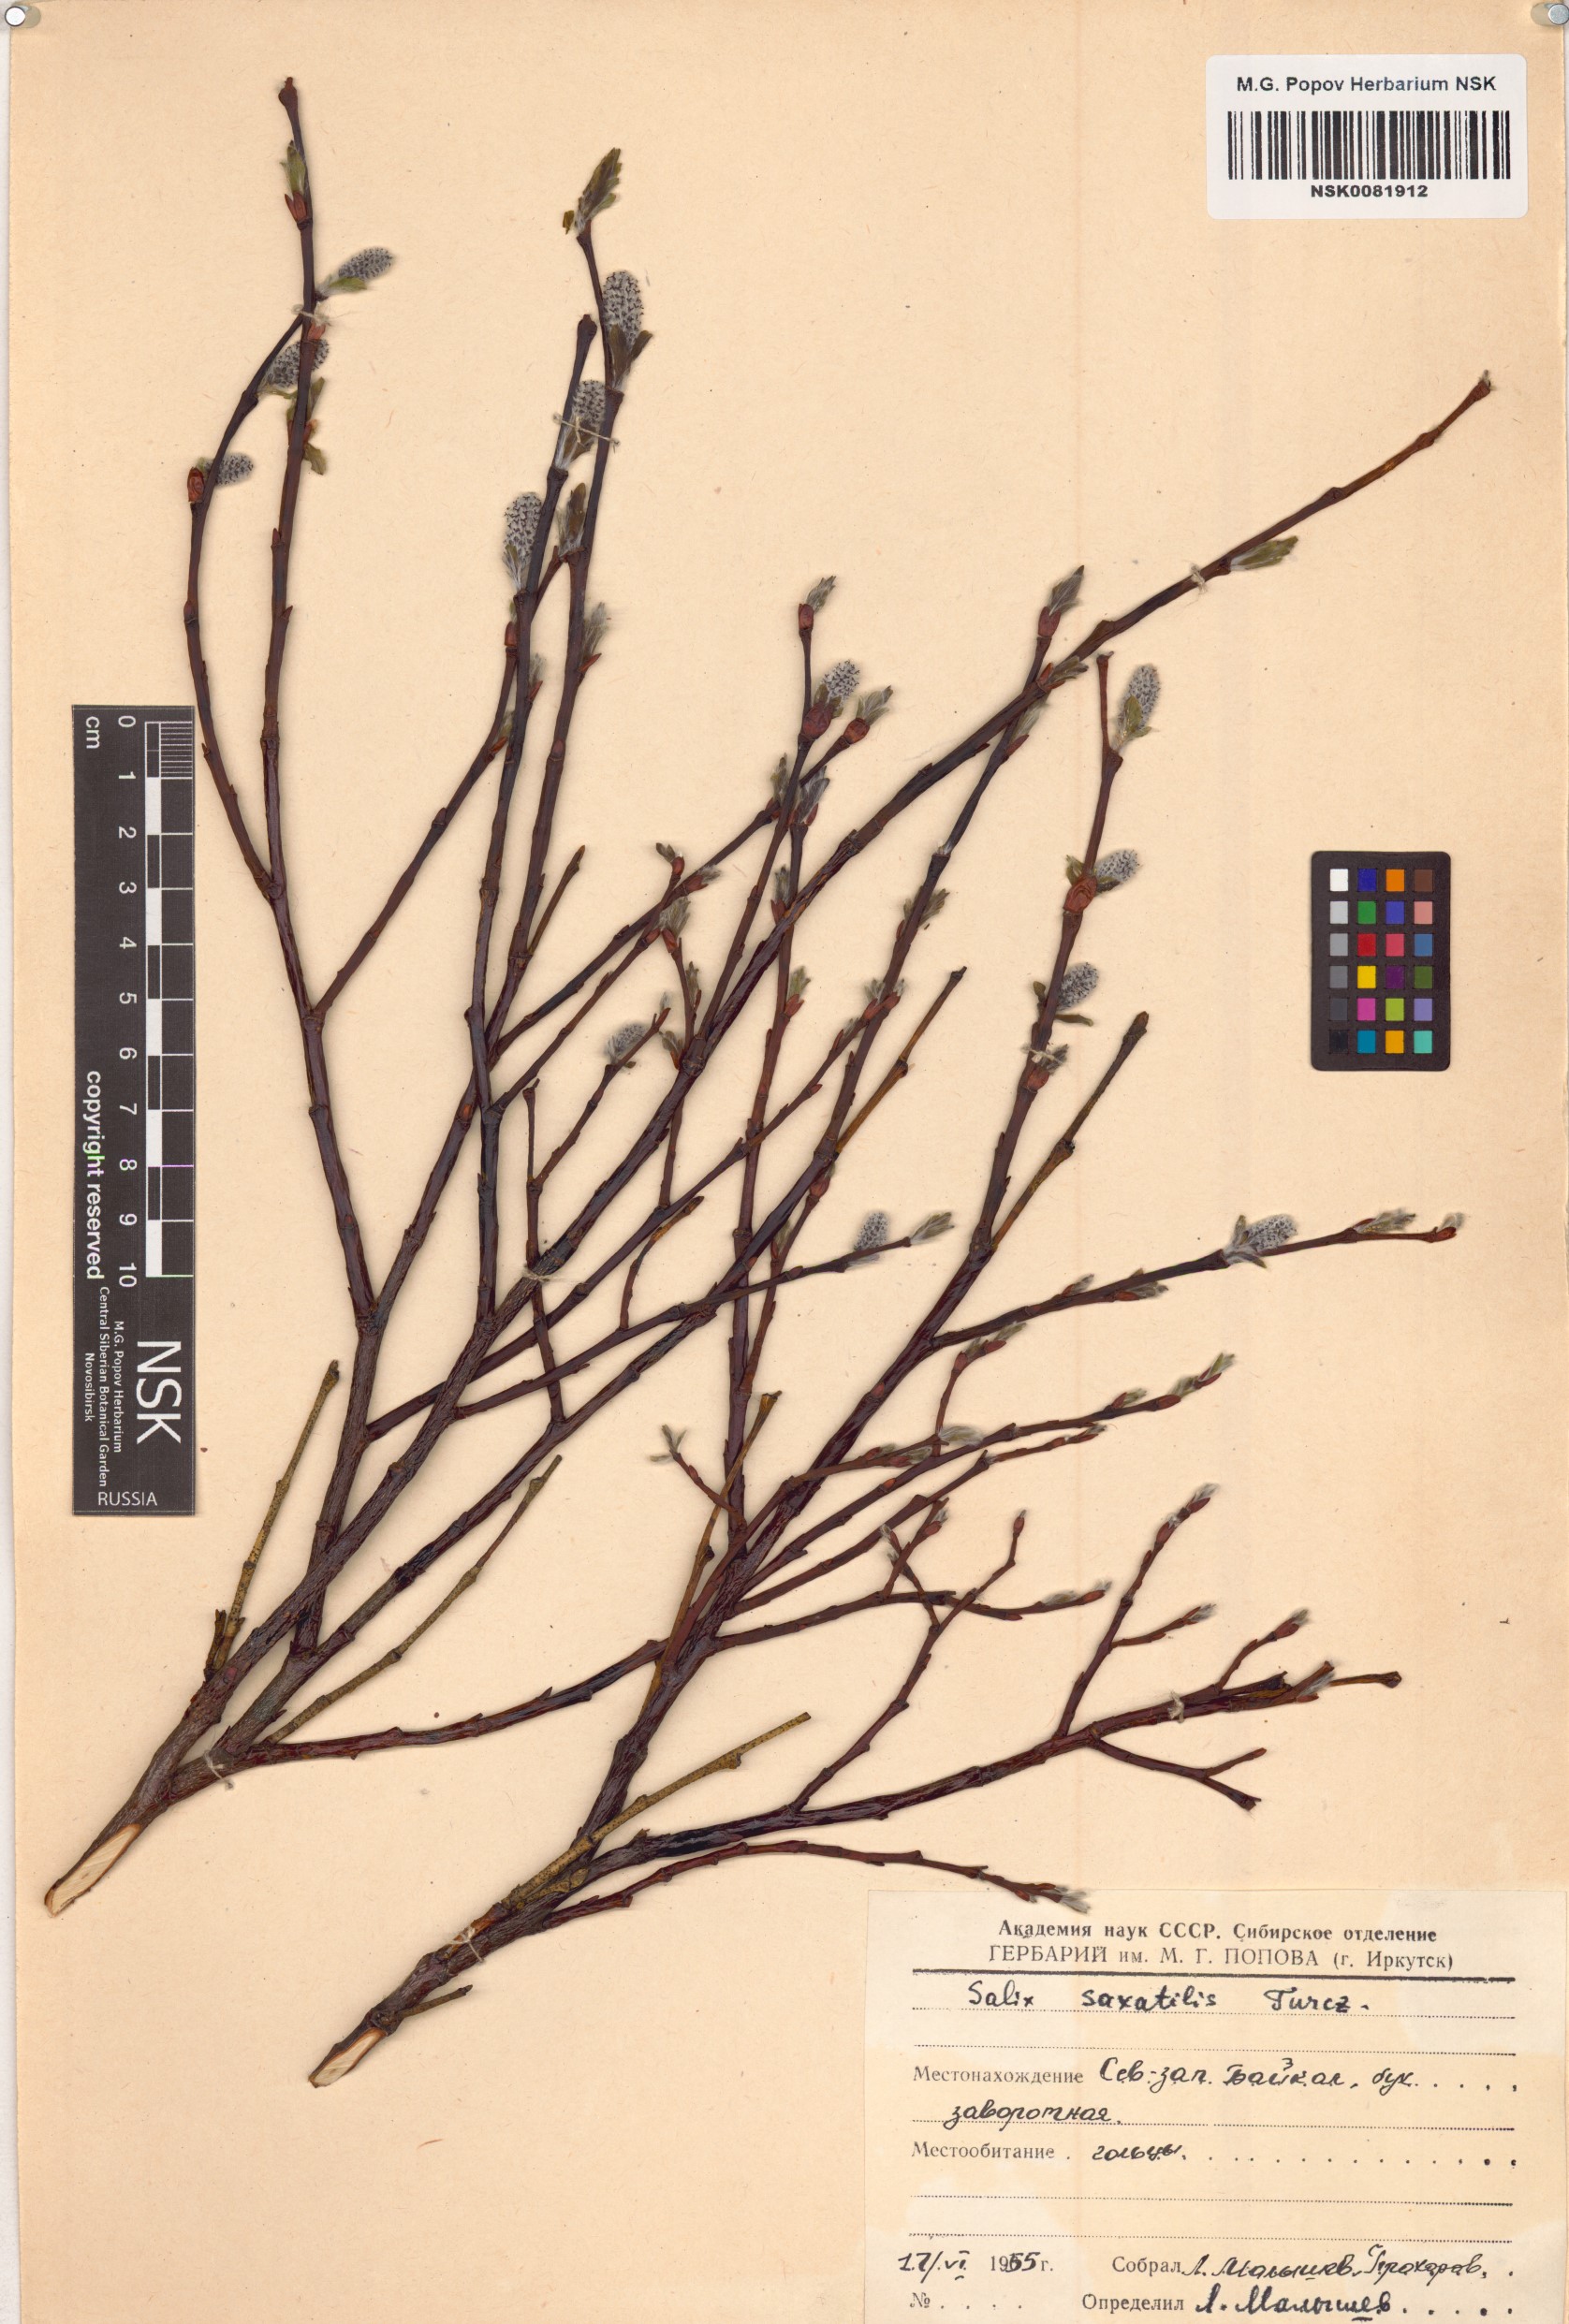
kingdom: Plantae
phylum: Tracheophyta
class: Magnoliopsida
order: Malpighiales
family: Salicaceae
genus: Salix
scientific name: Salix saxatilis
